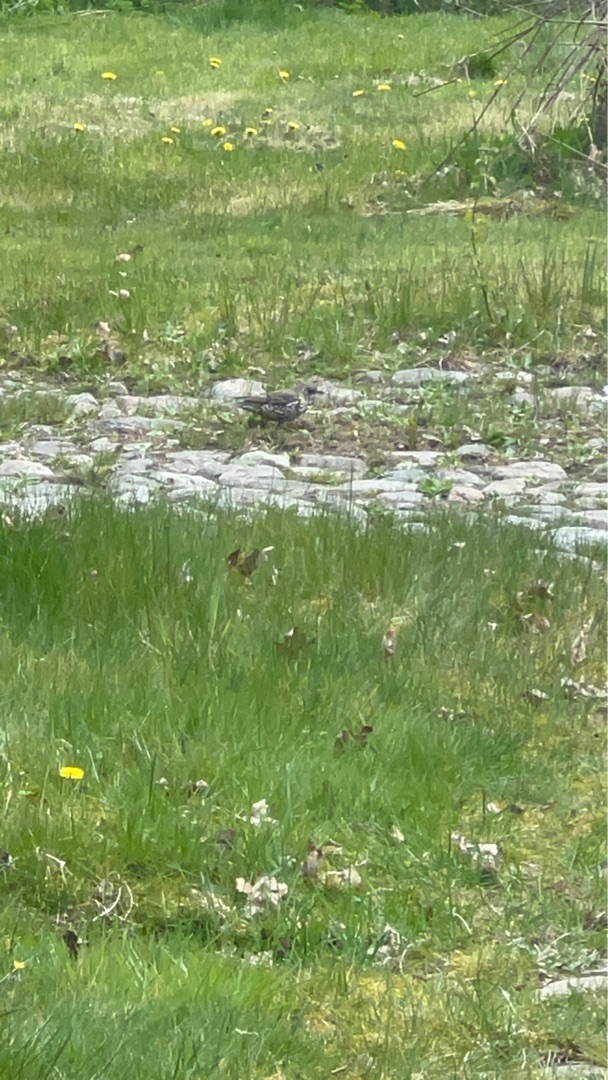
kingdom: Animalia
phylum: Chordata
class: Aves
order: Passeriformes
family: Turdidae
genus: Turdus
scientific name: Turdus viscivorus
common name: Misteldrossel
